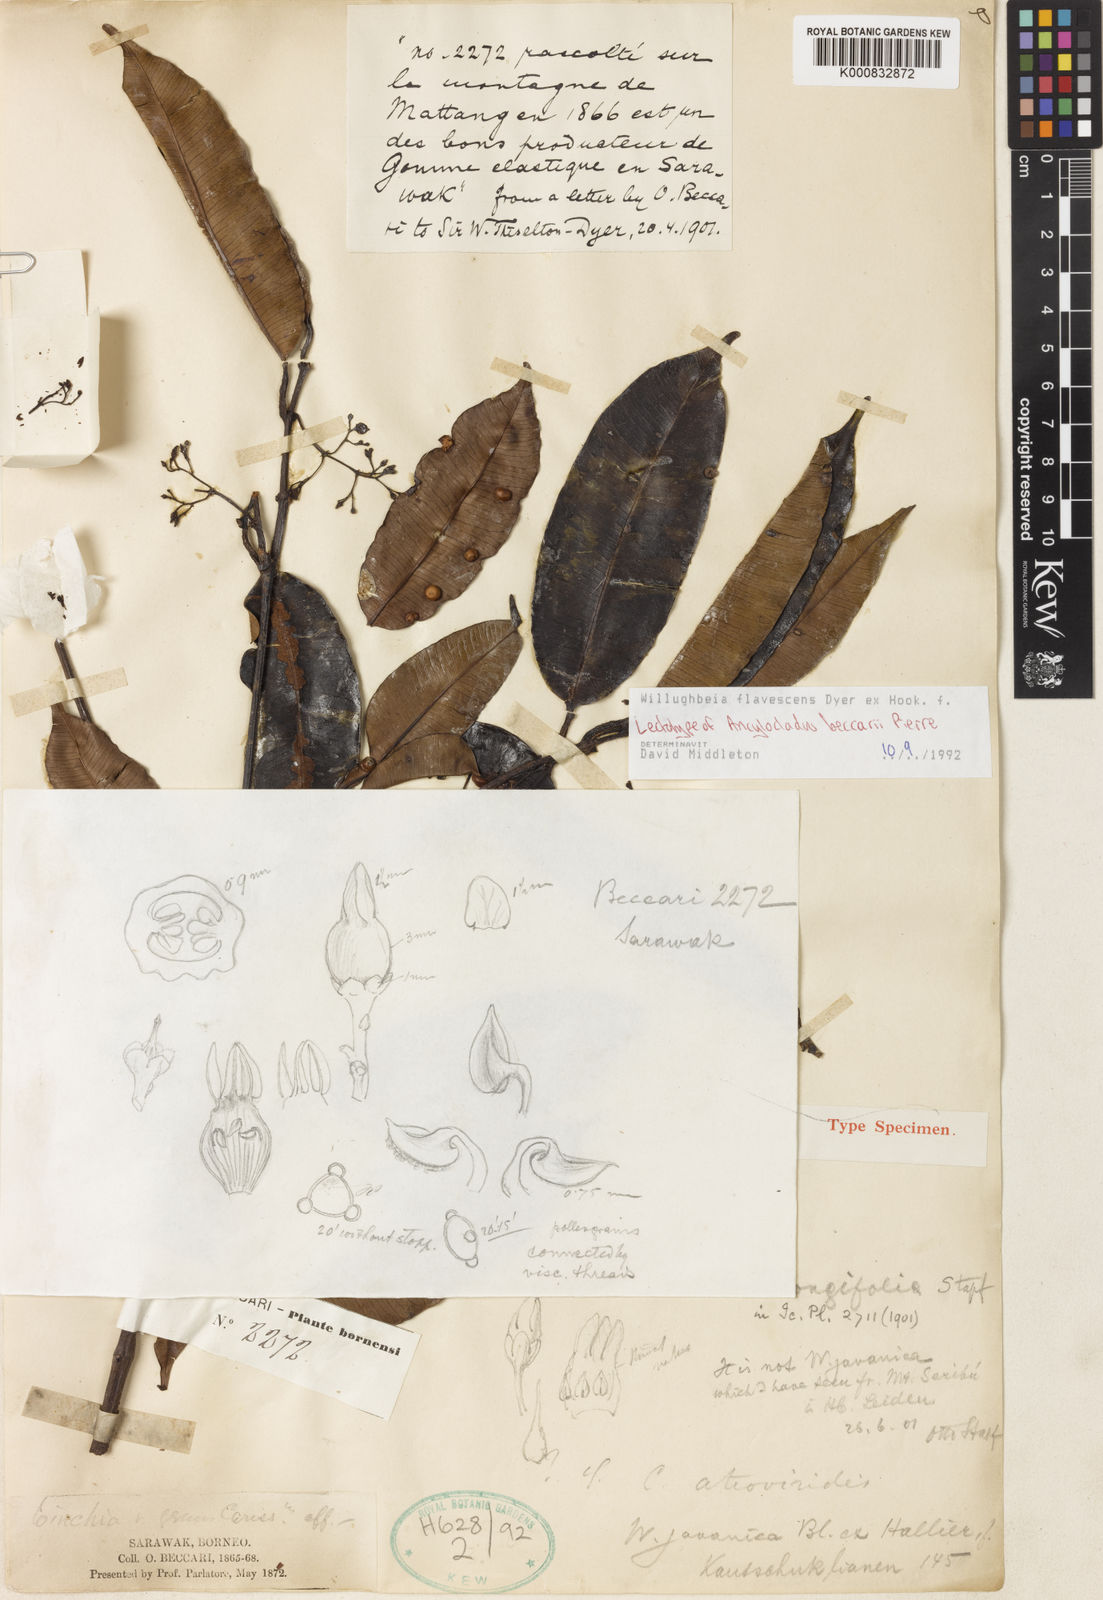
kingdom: Plantae
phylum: Tracheophyta
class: Magnoliopsida
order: Gentianales
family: Apocynaceae
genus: Willughbeia
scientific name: Willughbeia flavescens
